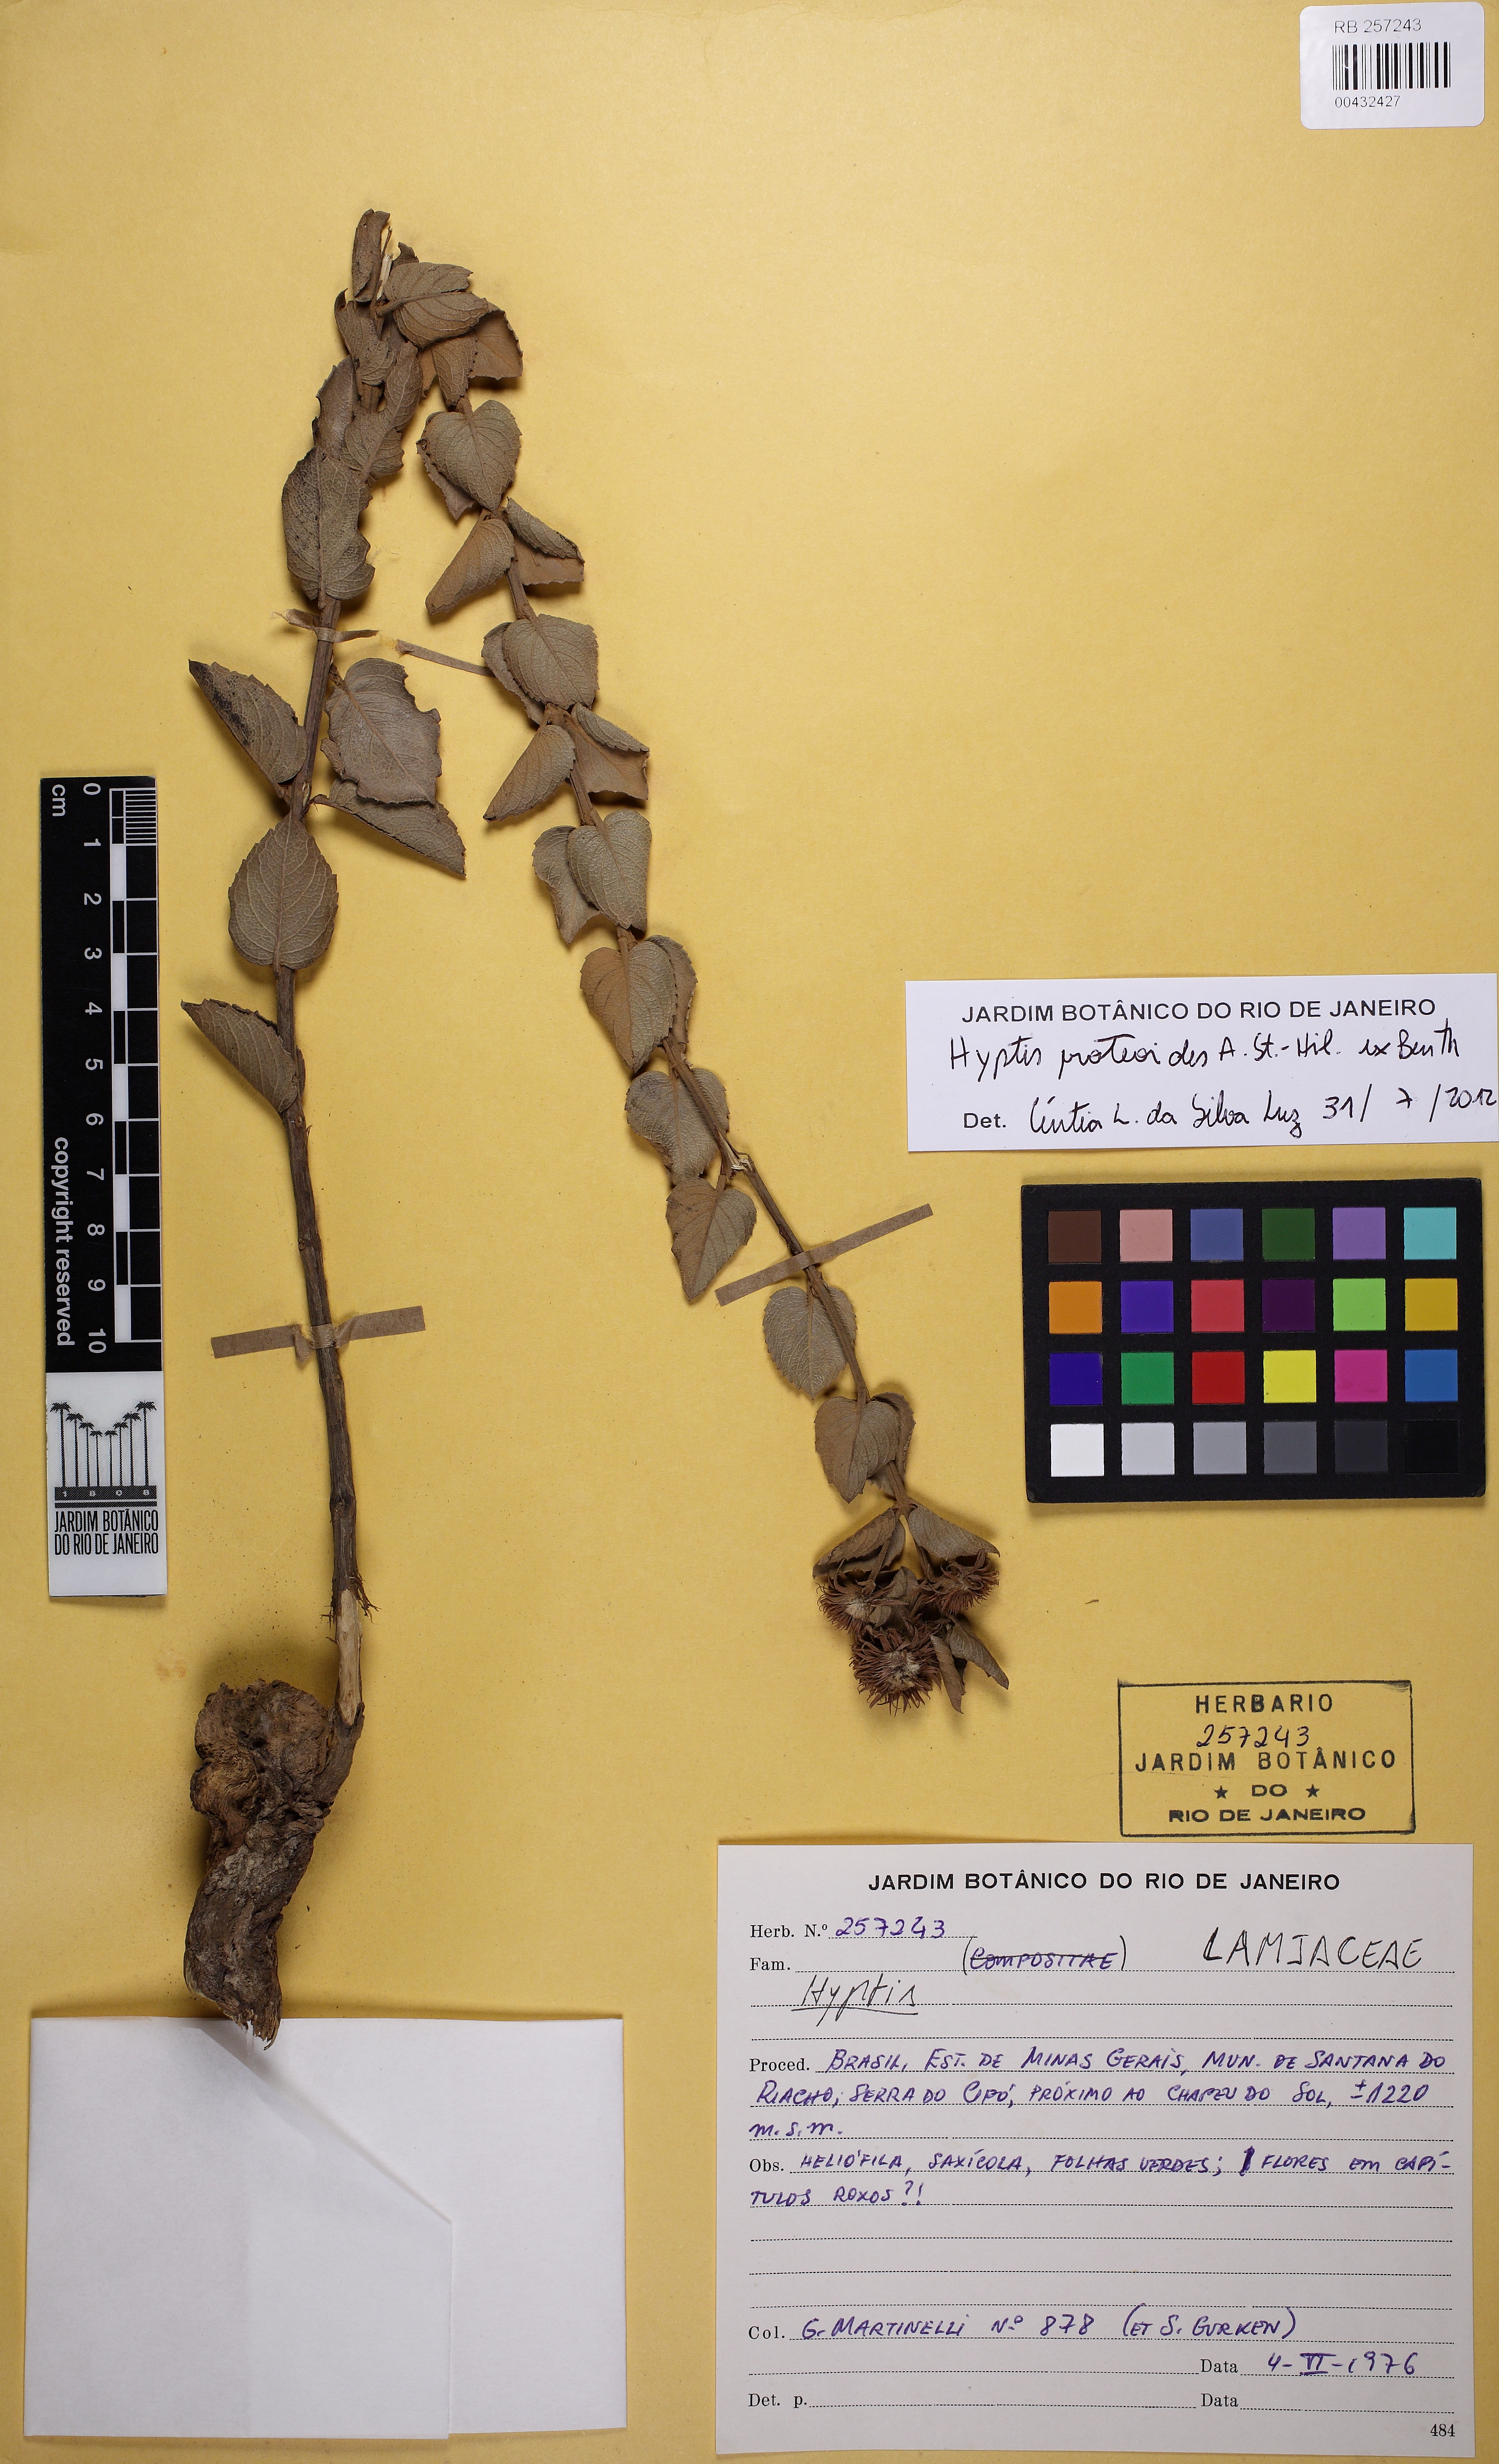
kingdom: Plantae
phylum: Tracheophyta
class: Magnoliopsida
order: Lamiales
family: Lamiaceae
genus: Hyptis
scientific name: Hyptis proteoides
